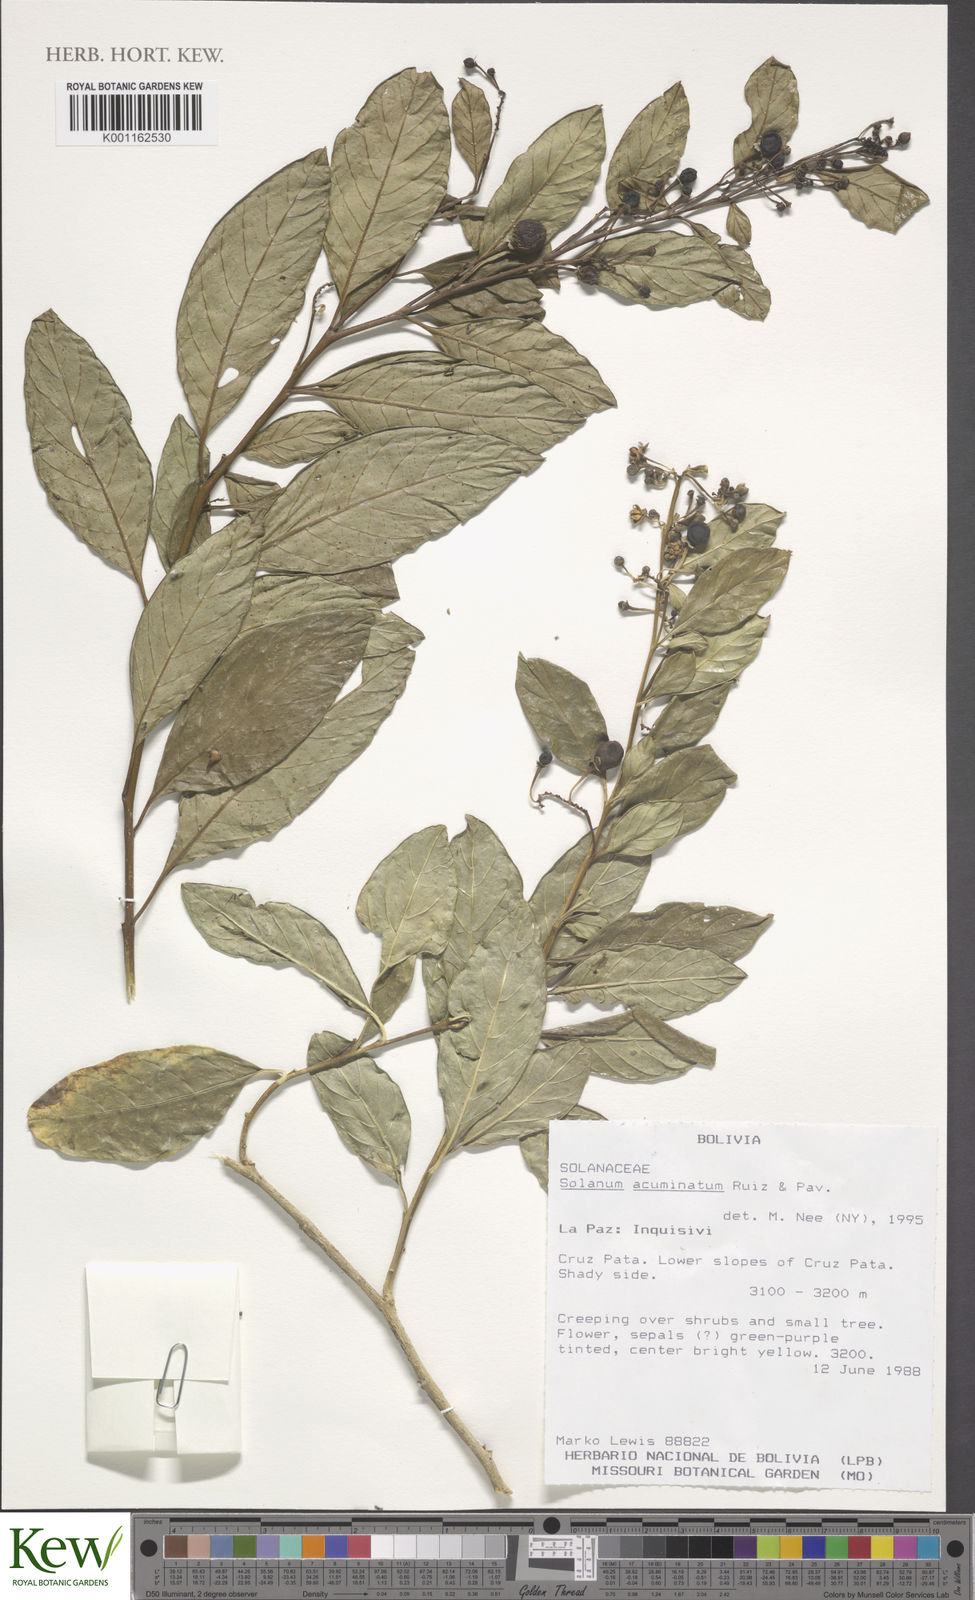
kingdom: Plantae
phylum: Tracheophyta
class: Magnoliopsida
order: Solanales
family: Solanaceae
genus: Solanum
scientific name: Solanum acuminatum
